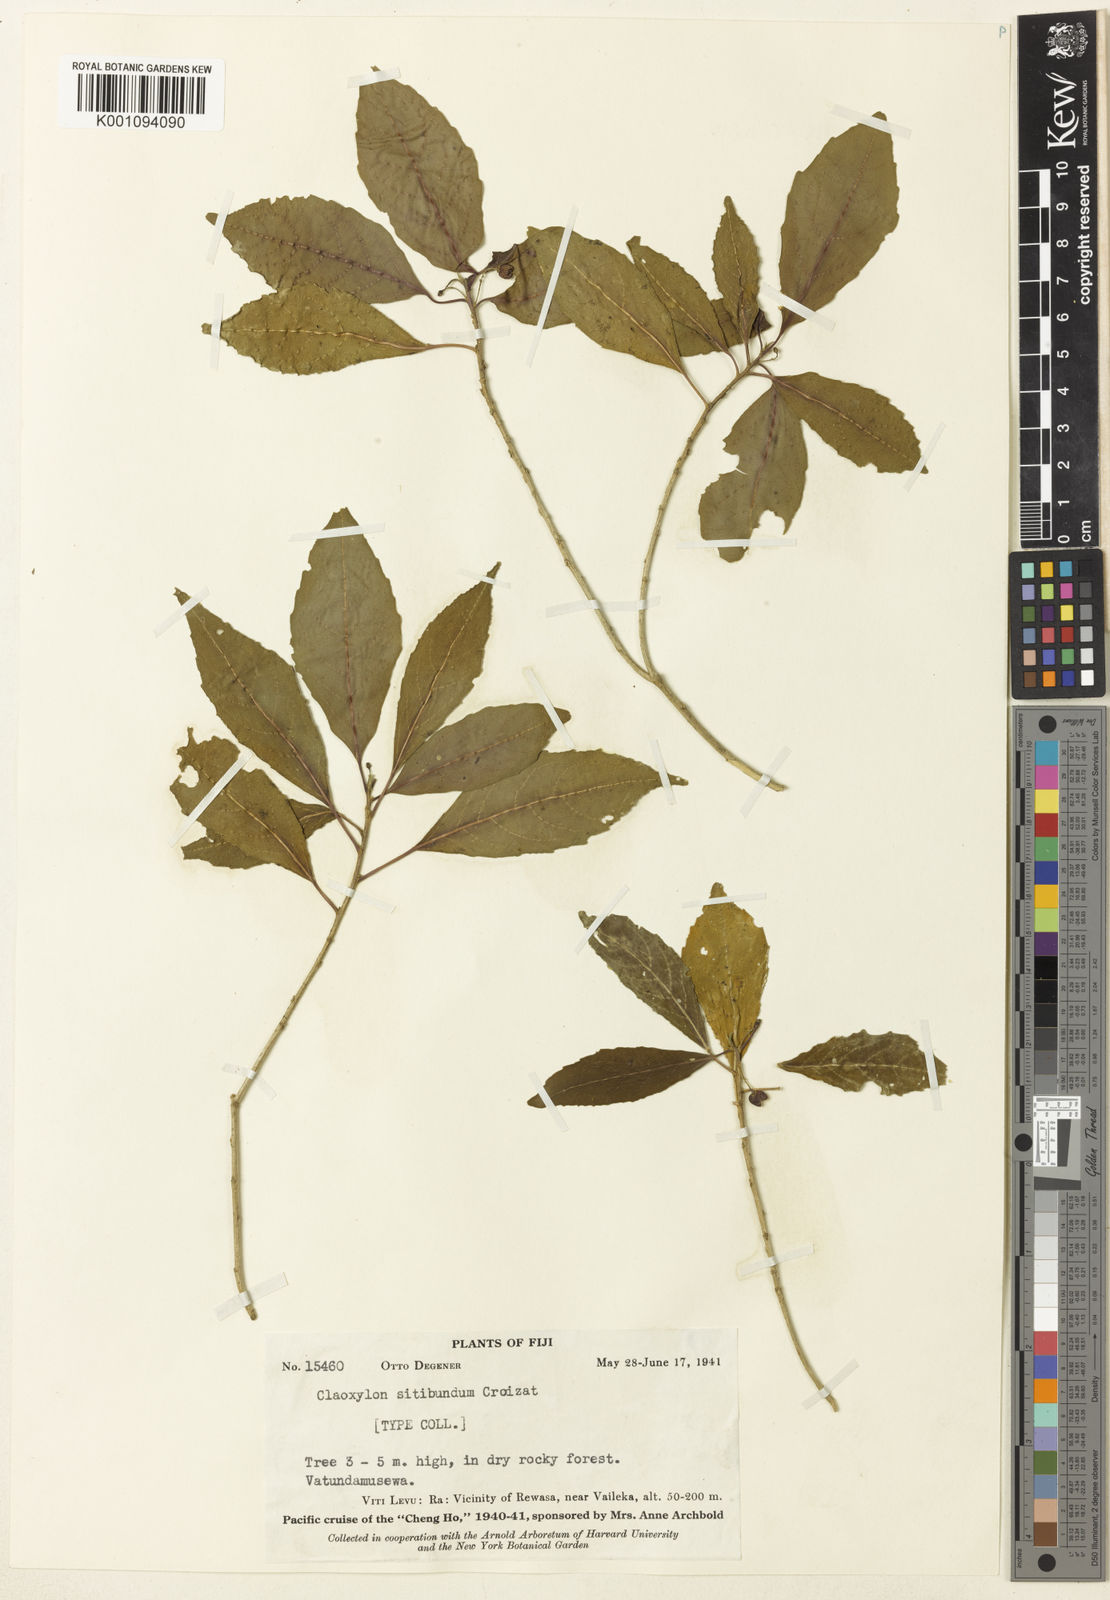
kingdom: Plantae
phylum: Tracheophyta
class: Magnoliopsida
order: Malpighiales
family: Euphorbiaceae
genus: Claoxylon
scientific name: Claoxylon echinospermum
